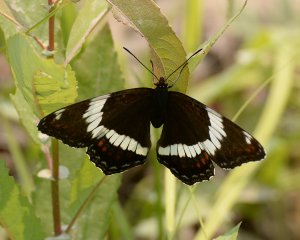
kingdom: Animalia
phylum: Arthropoda
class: Insecta
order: Lepidoptera
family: Nymphalidae
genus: Limenitis
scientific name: Limenitis arthemis
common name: Red-spotted Admiral
